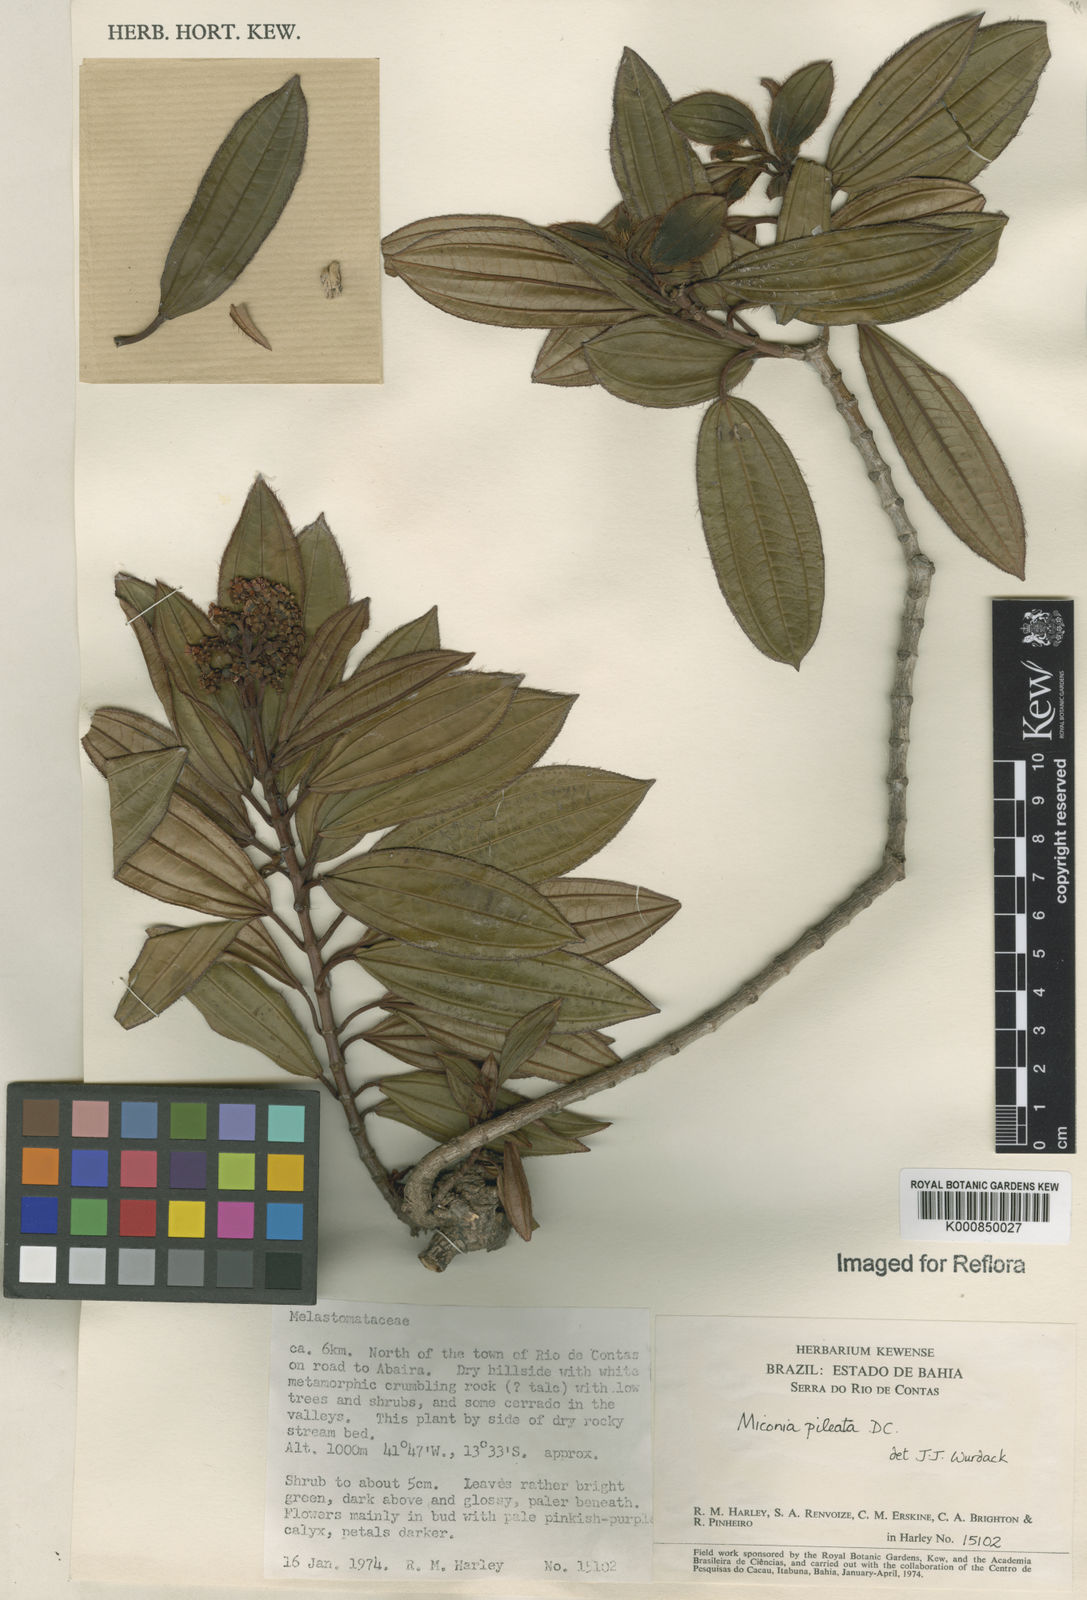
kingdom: Plantae
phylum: Tracheophyta
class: Magnoliopsida
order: Myrtales
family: Melastomataceae
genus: Miconia
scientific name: Miconia pileata
